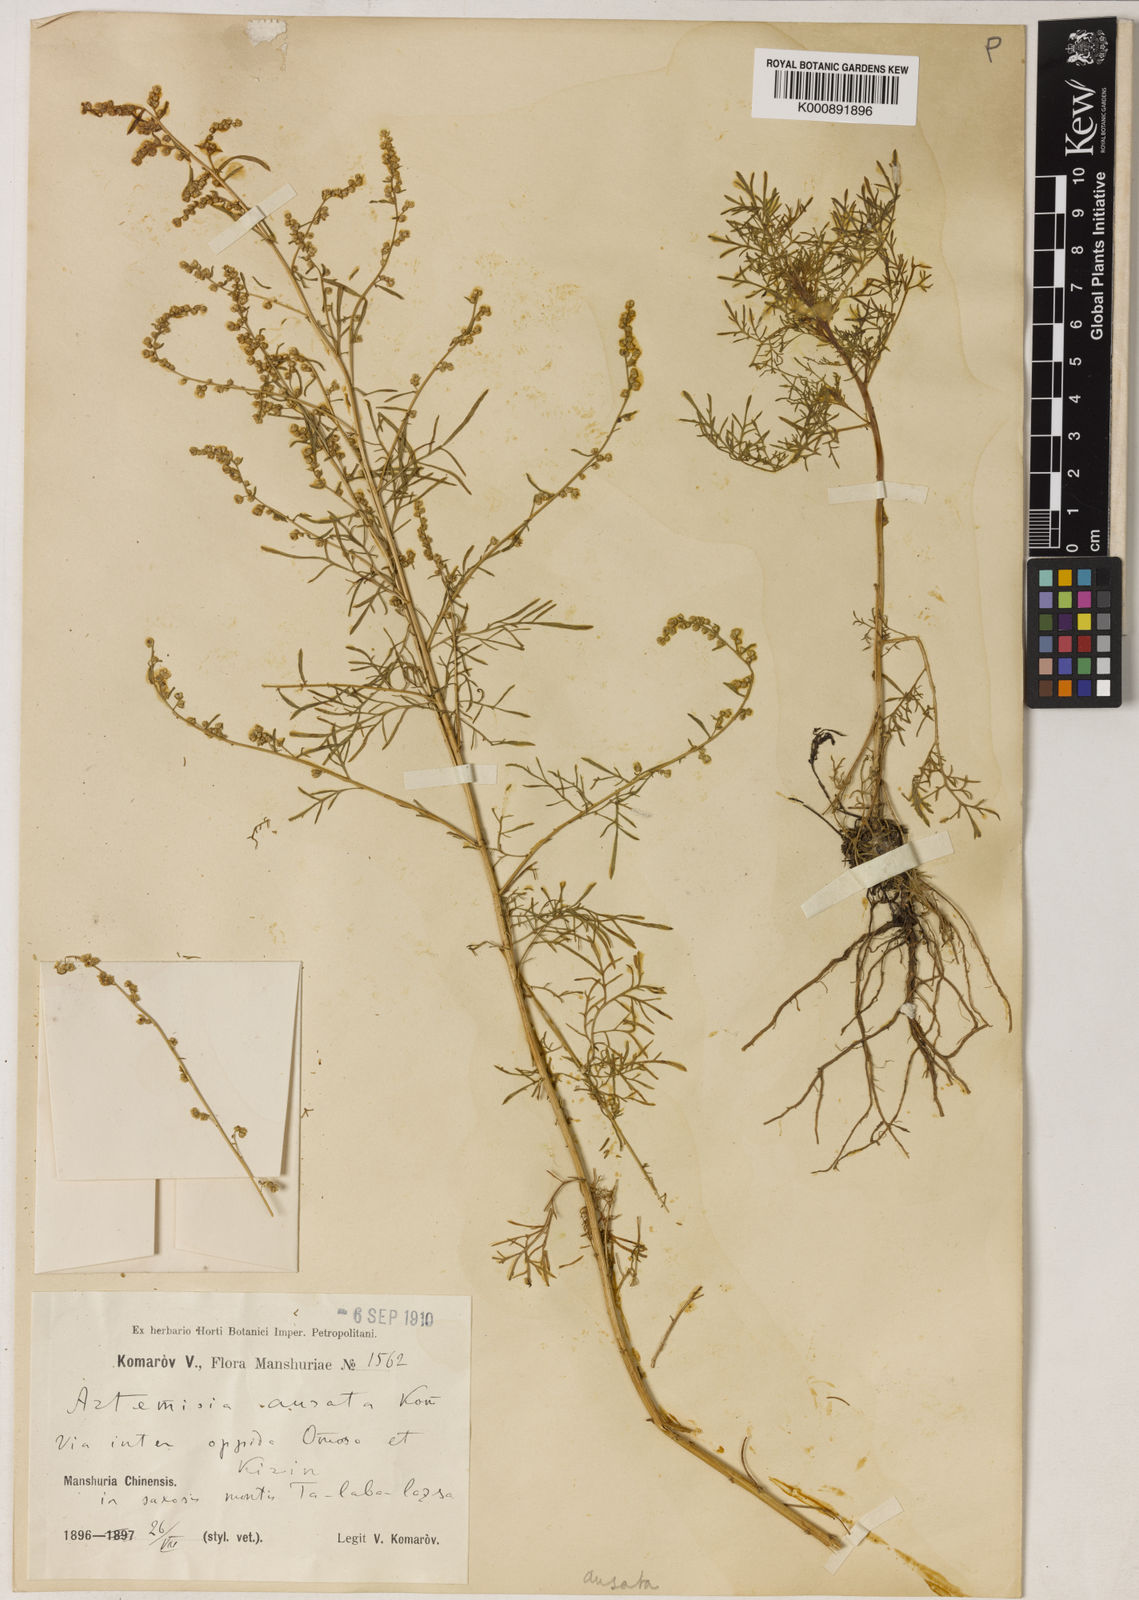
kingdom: Plantae
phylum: Tracheophyta
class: Magnoliopsida
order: Asterales
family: Asteraceae
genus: Artemisia
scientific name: Artemisia aurata
